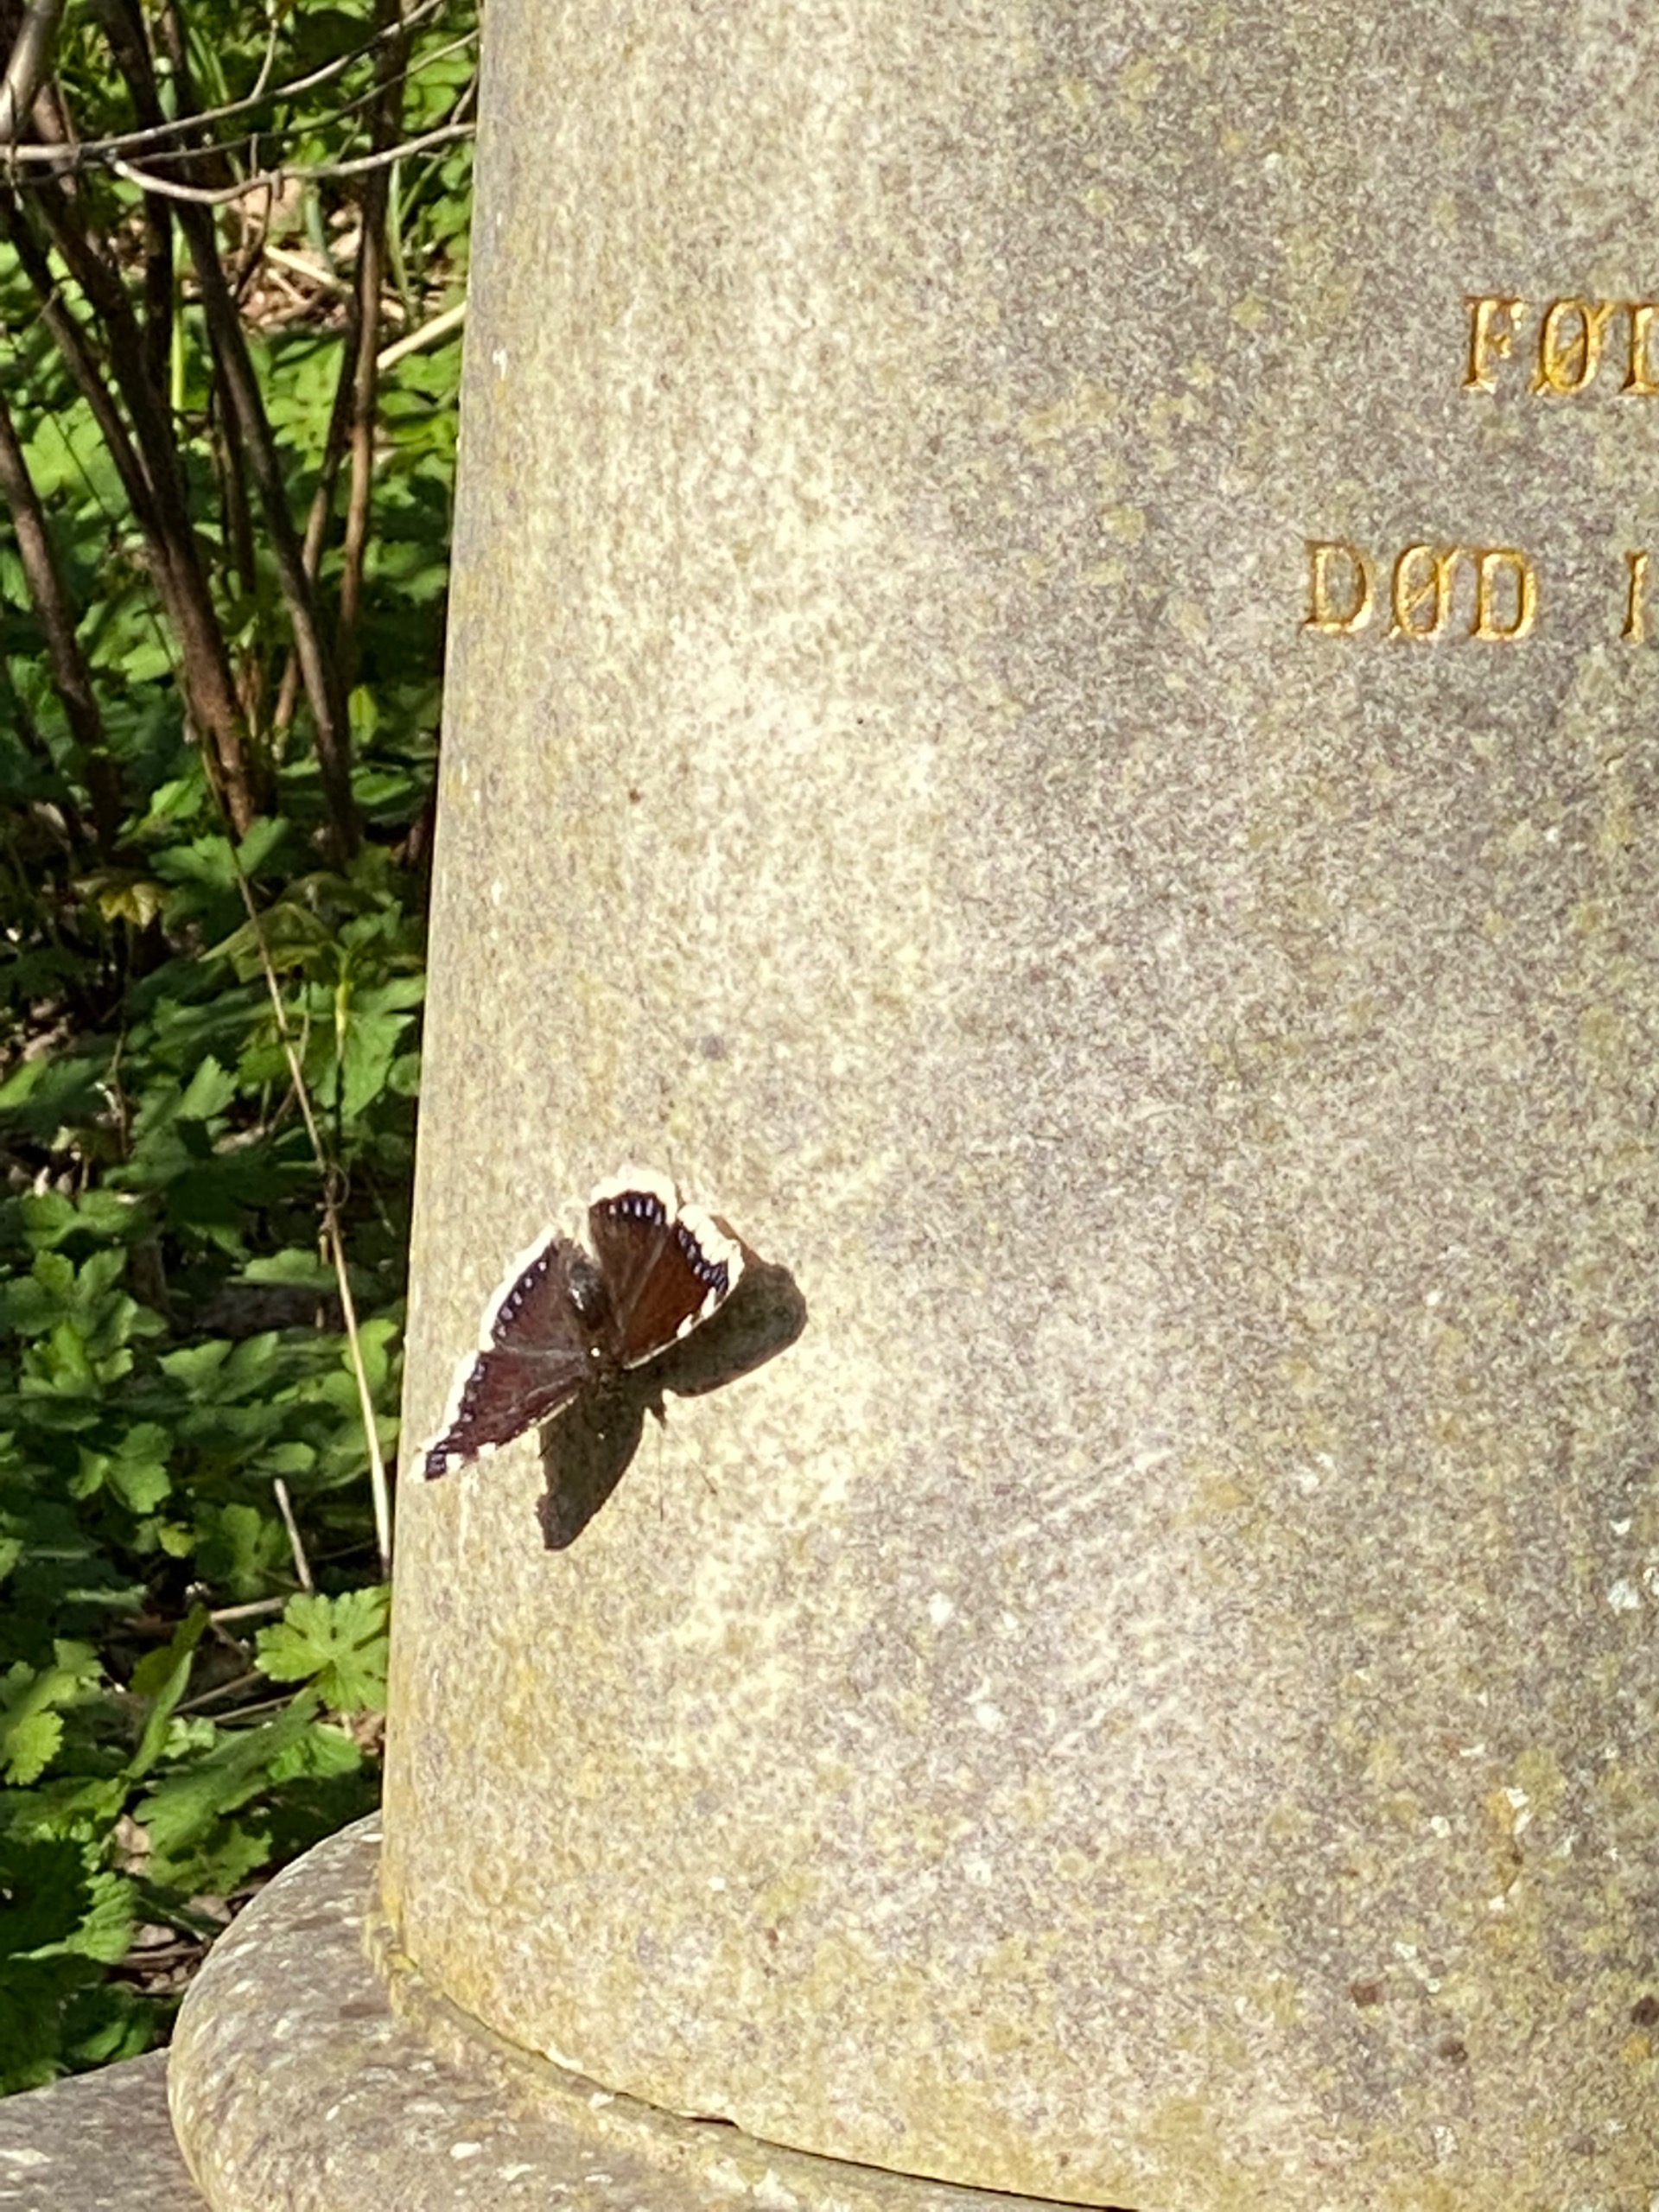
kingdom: Animalia
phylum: Arthropoda
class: Insecta
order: Lepidoptera
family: Nymphalidae
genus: Nymphalis
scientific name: Nymphalis antiopa
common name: Sørgekåbe
